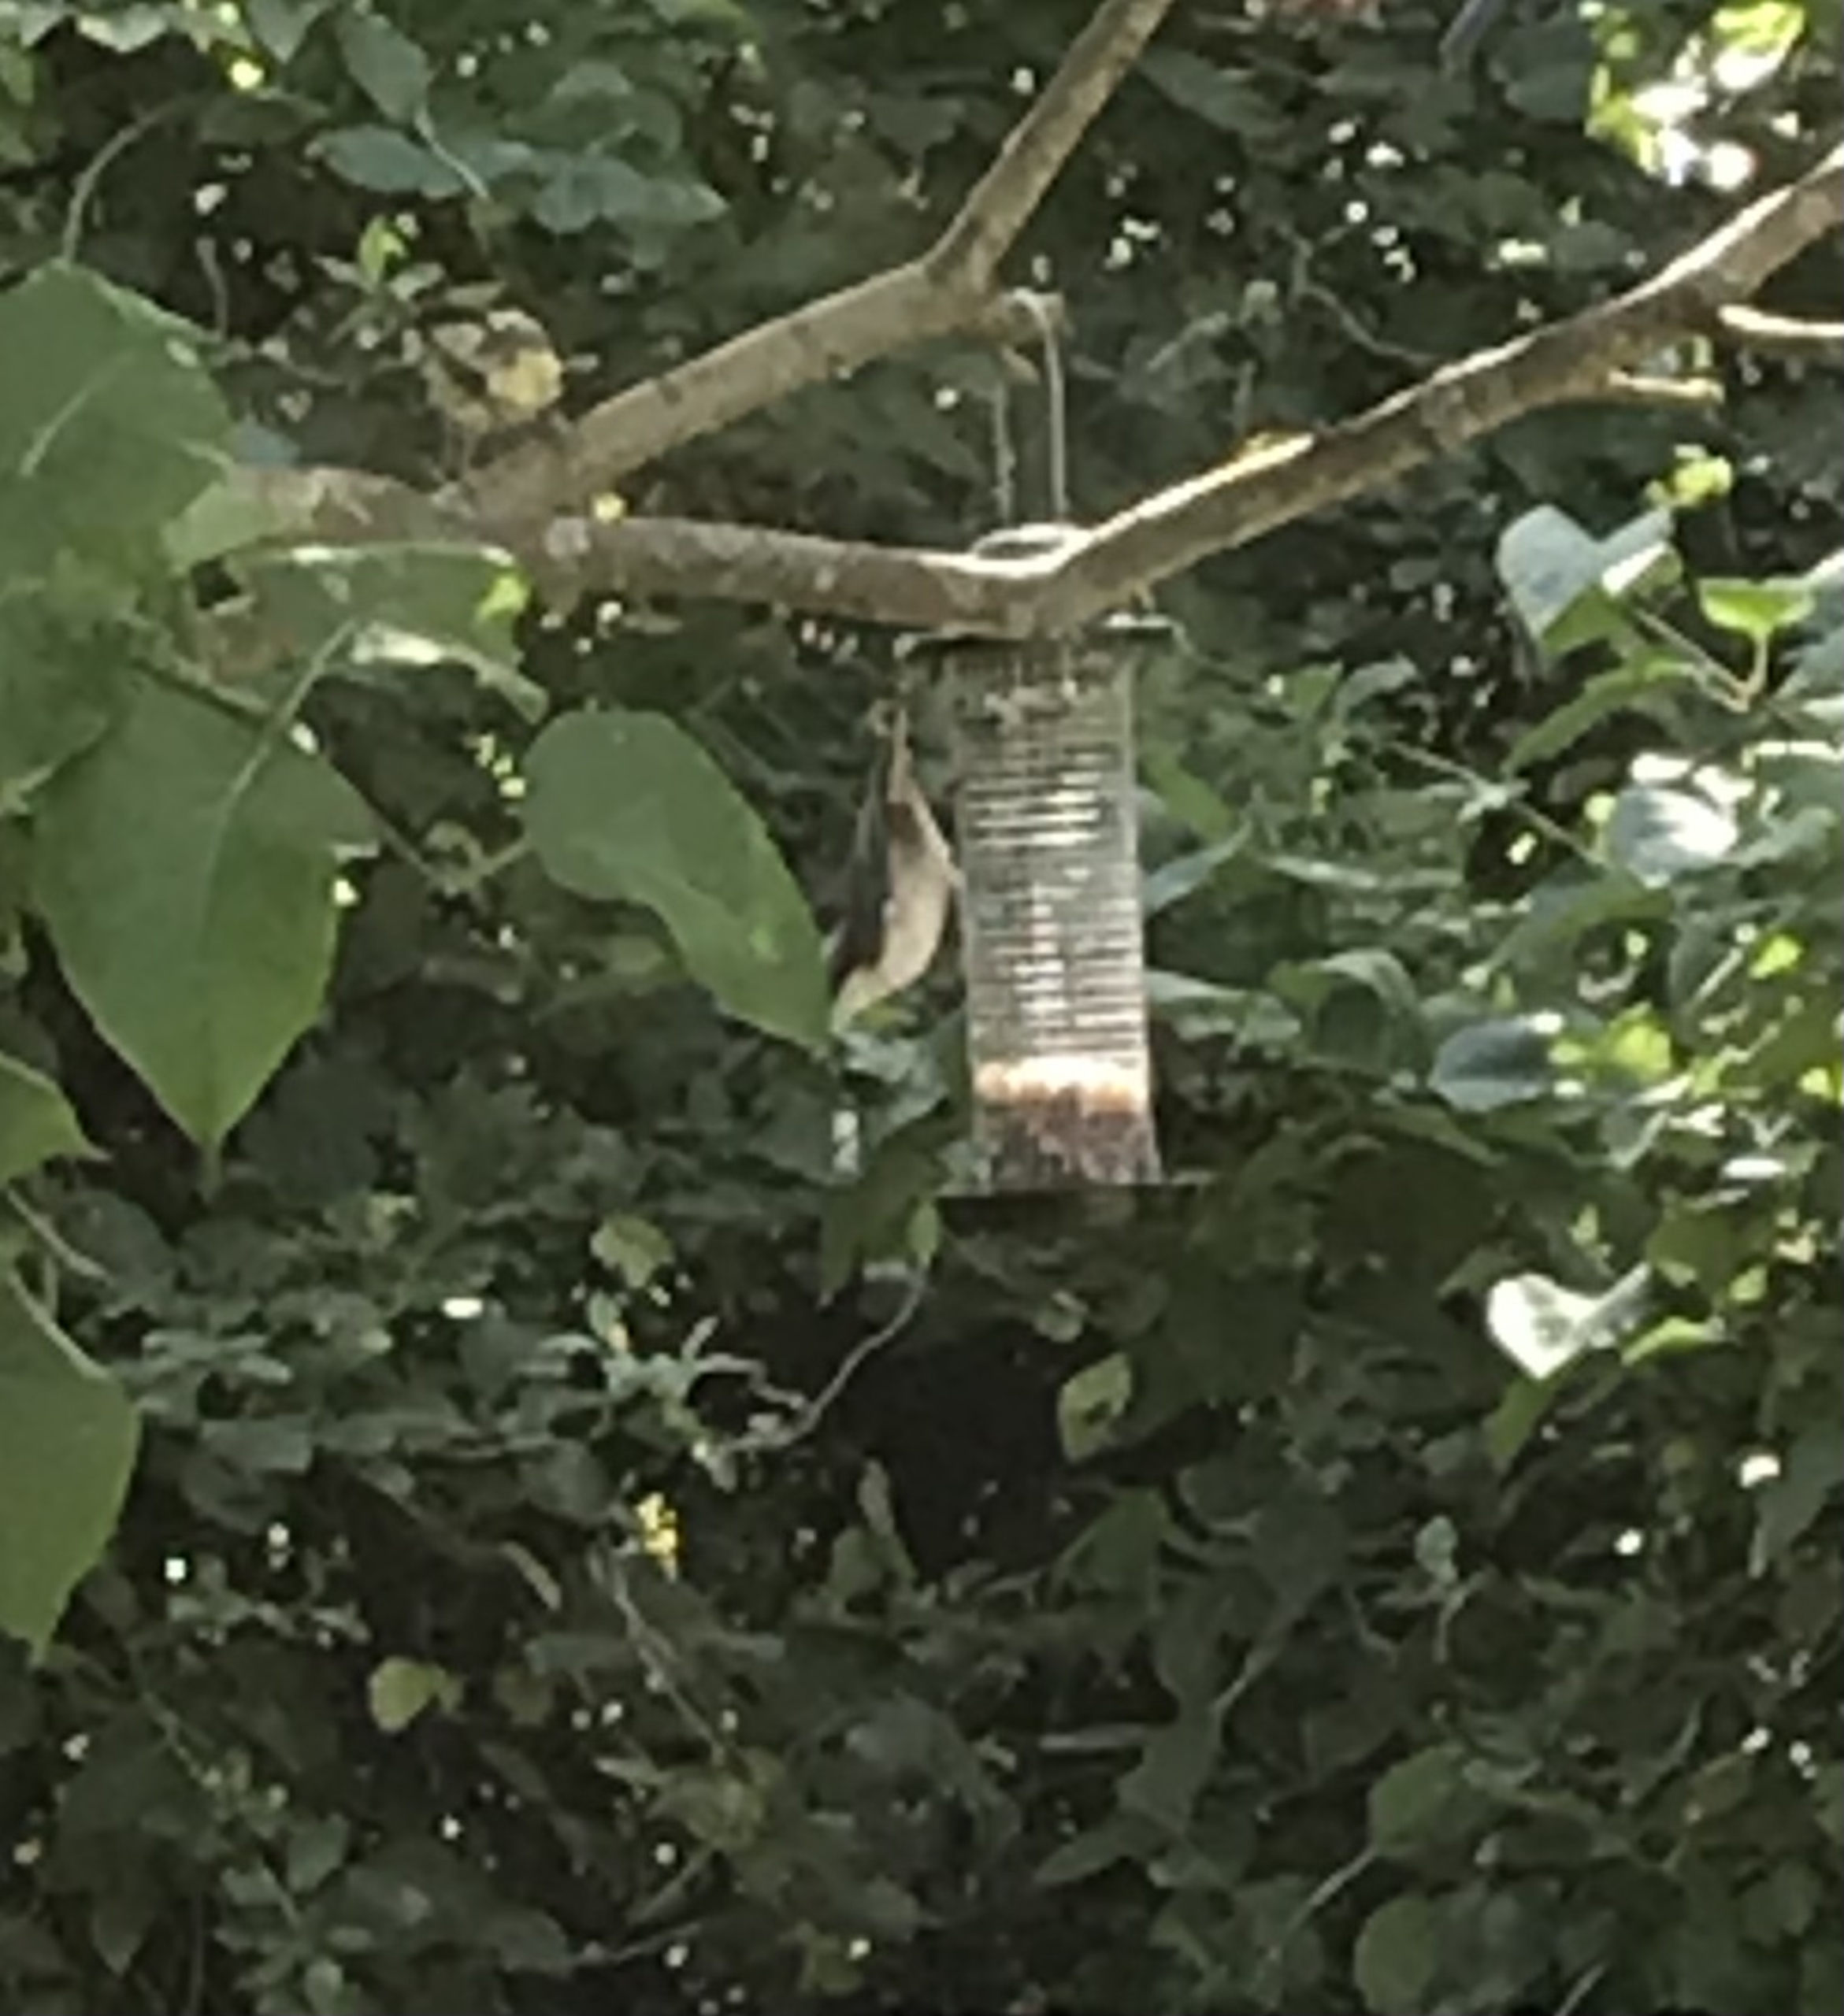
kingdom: Animalia
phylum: Chordata
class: Aves
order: Passeriformes
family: Sittidae
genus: Sitta
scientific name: Sitta europaea
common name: Spætmejse
